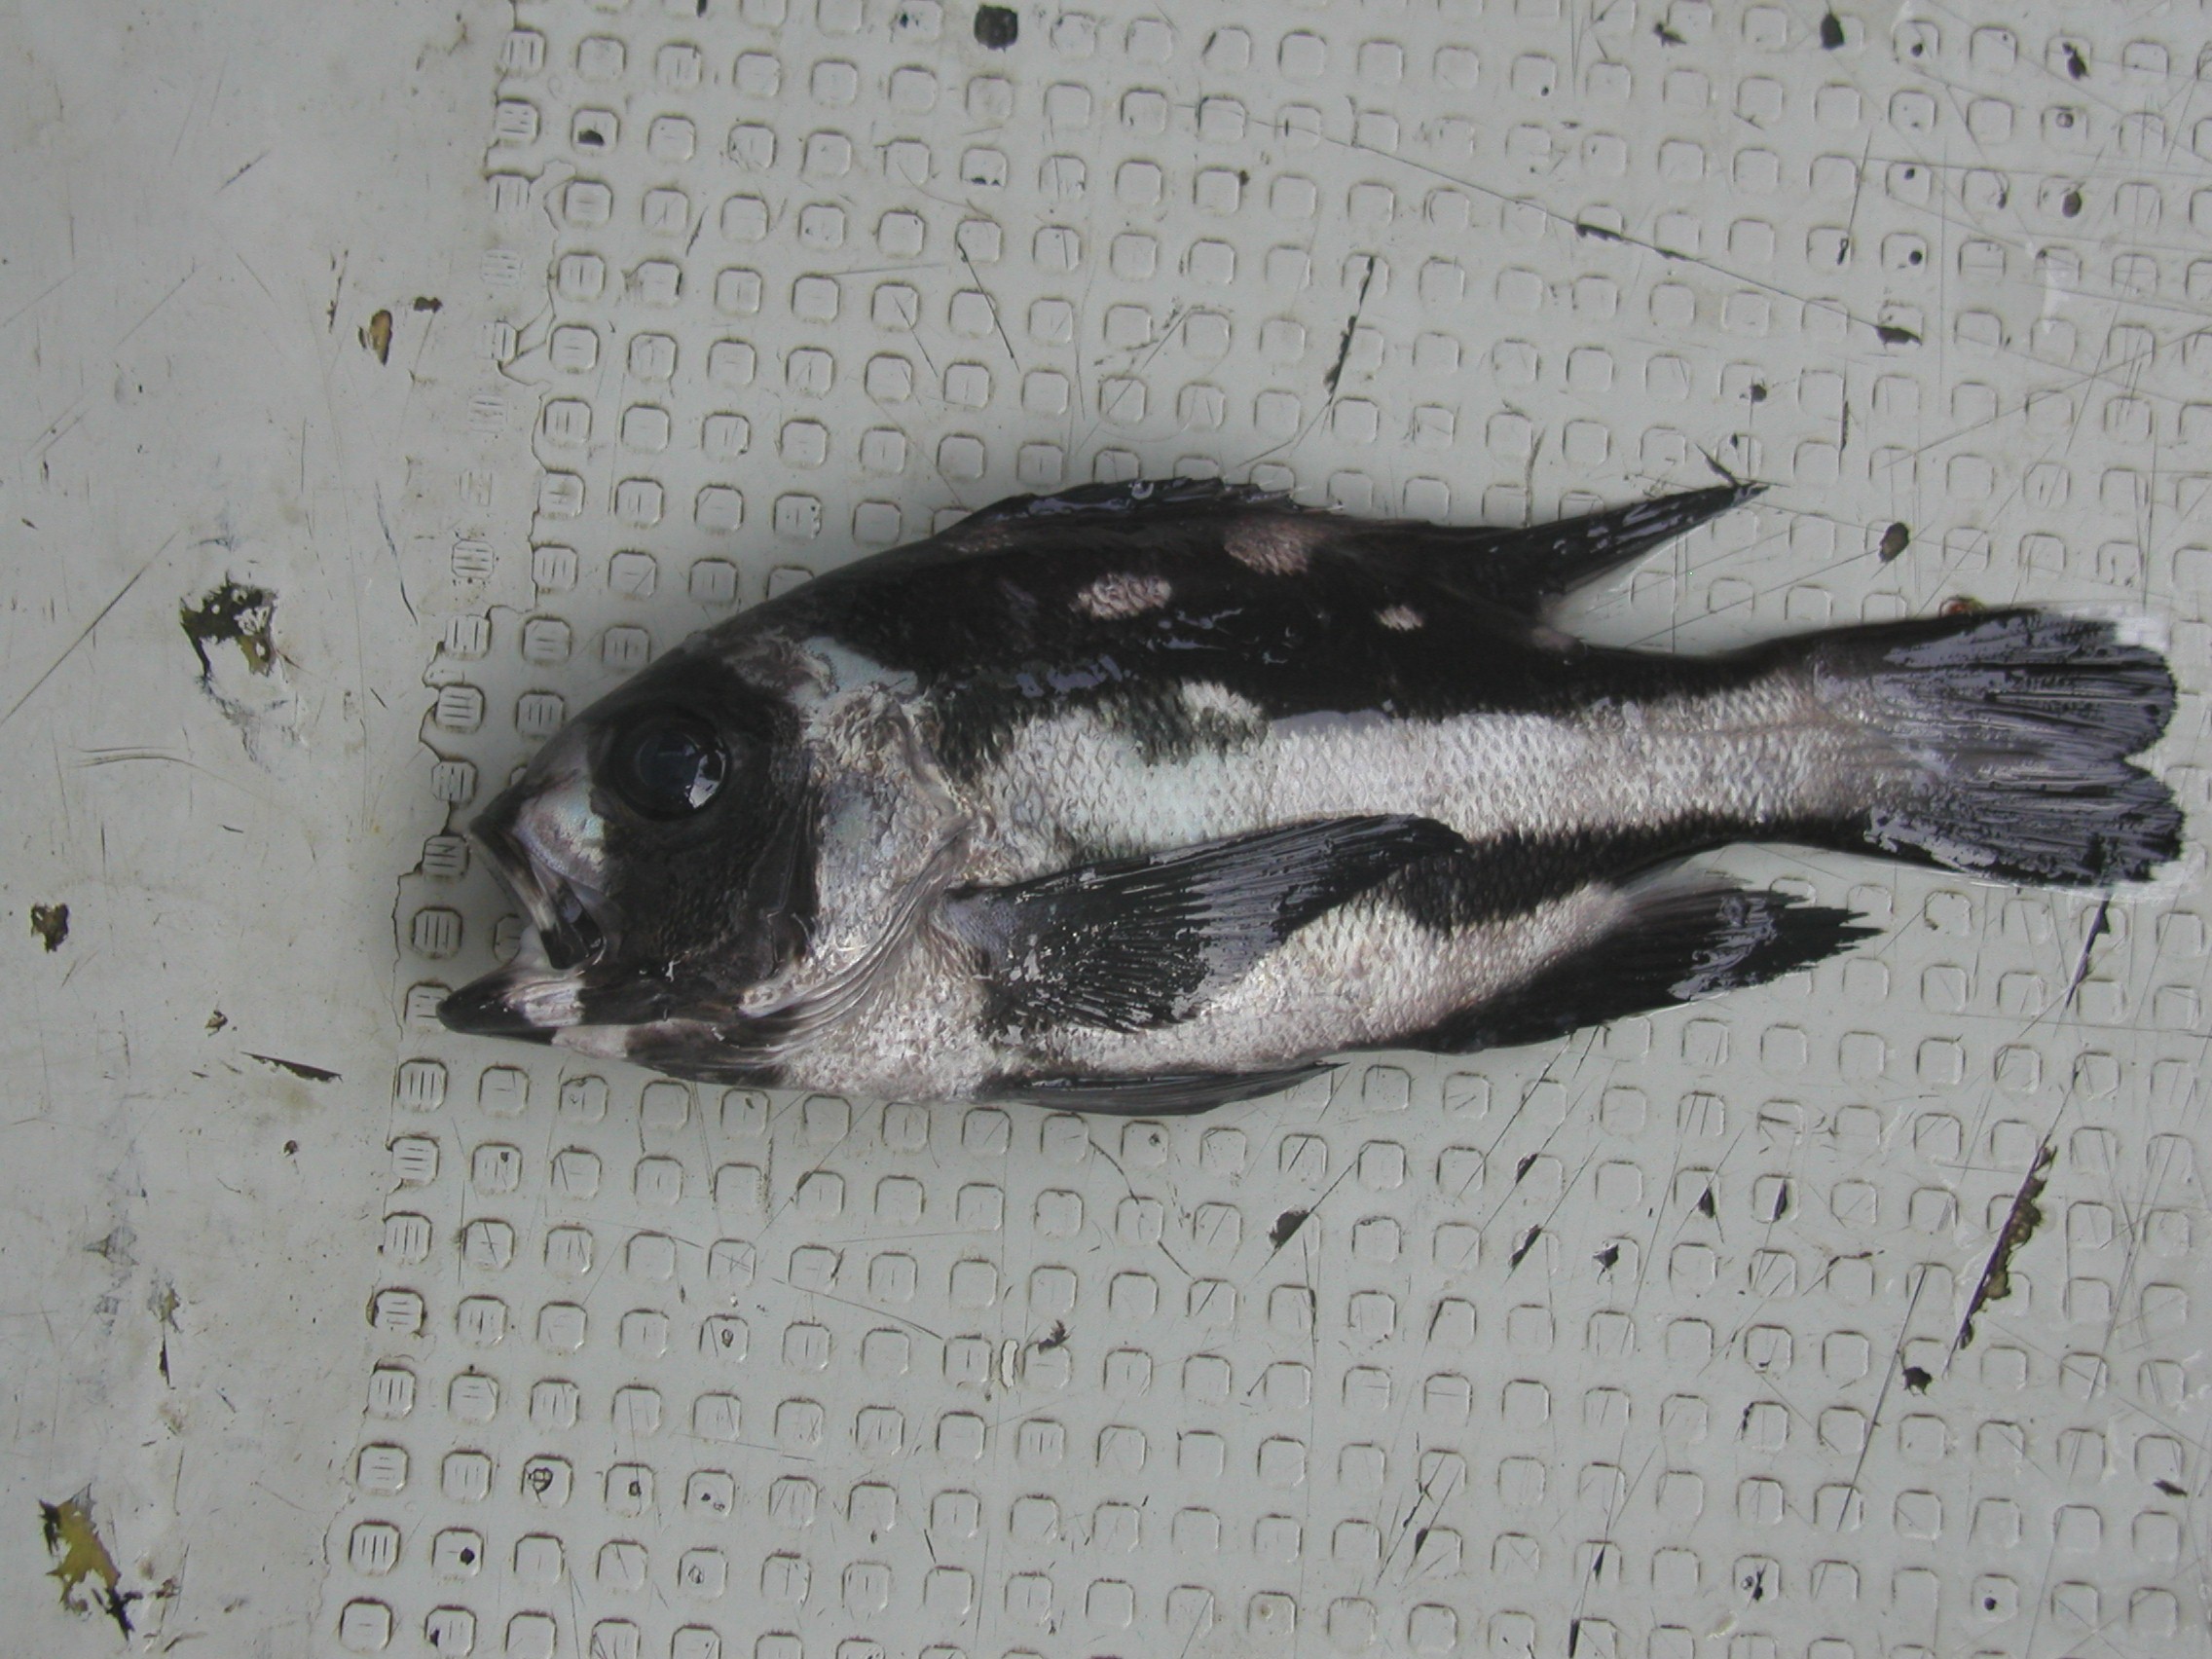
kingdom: Animalia
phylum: Chordata
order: Perciformes
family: Lutjanidae
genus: Macolor
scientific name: Macolor niger
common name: Black snapper
